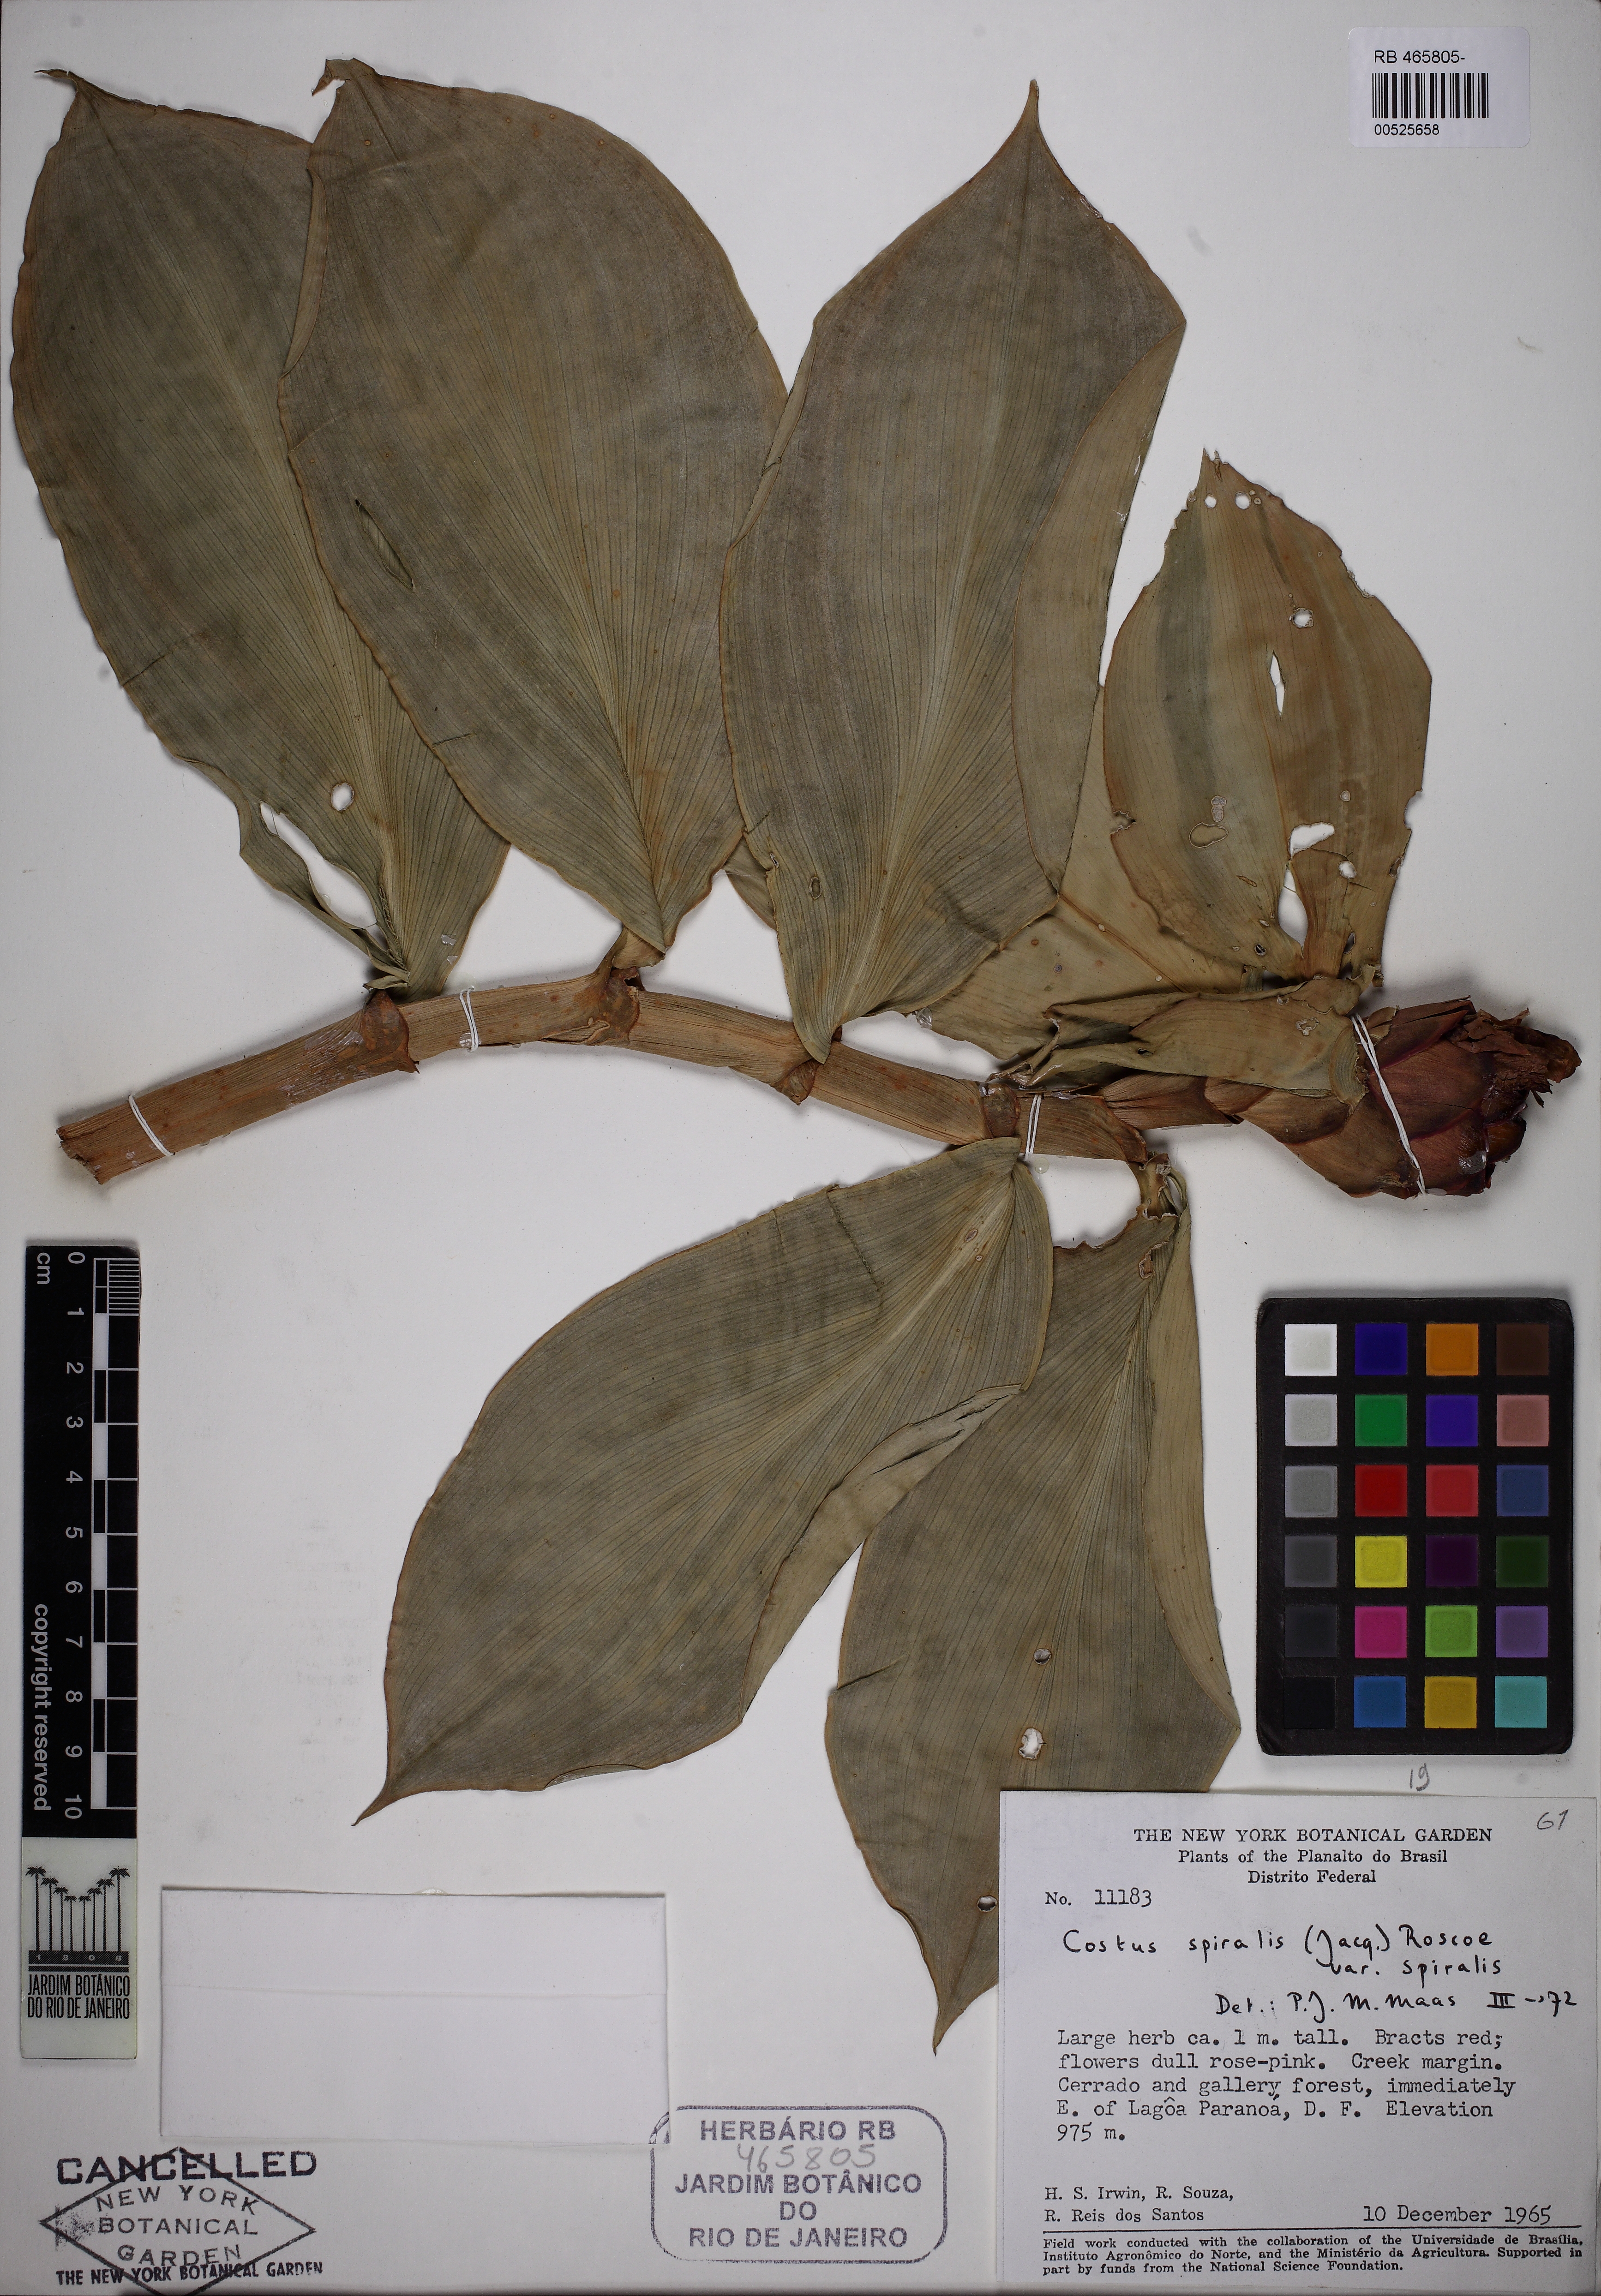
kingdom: Plantae
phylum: Tracheophyta
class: Liliopsida
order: Zingiberales
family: Costaceae
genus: Costus
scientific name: Costus spiralis
